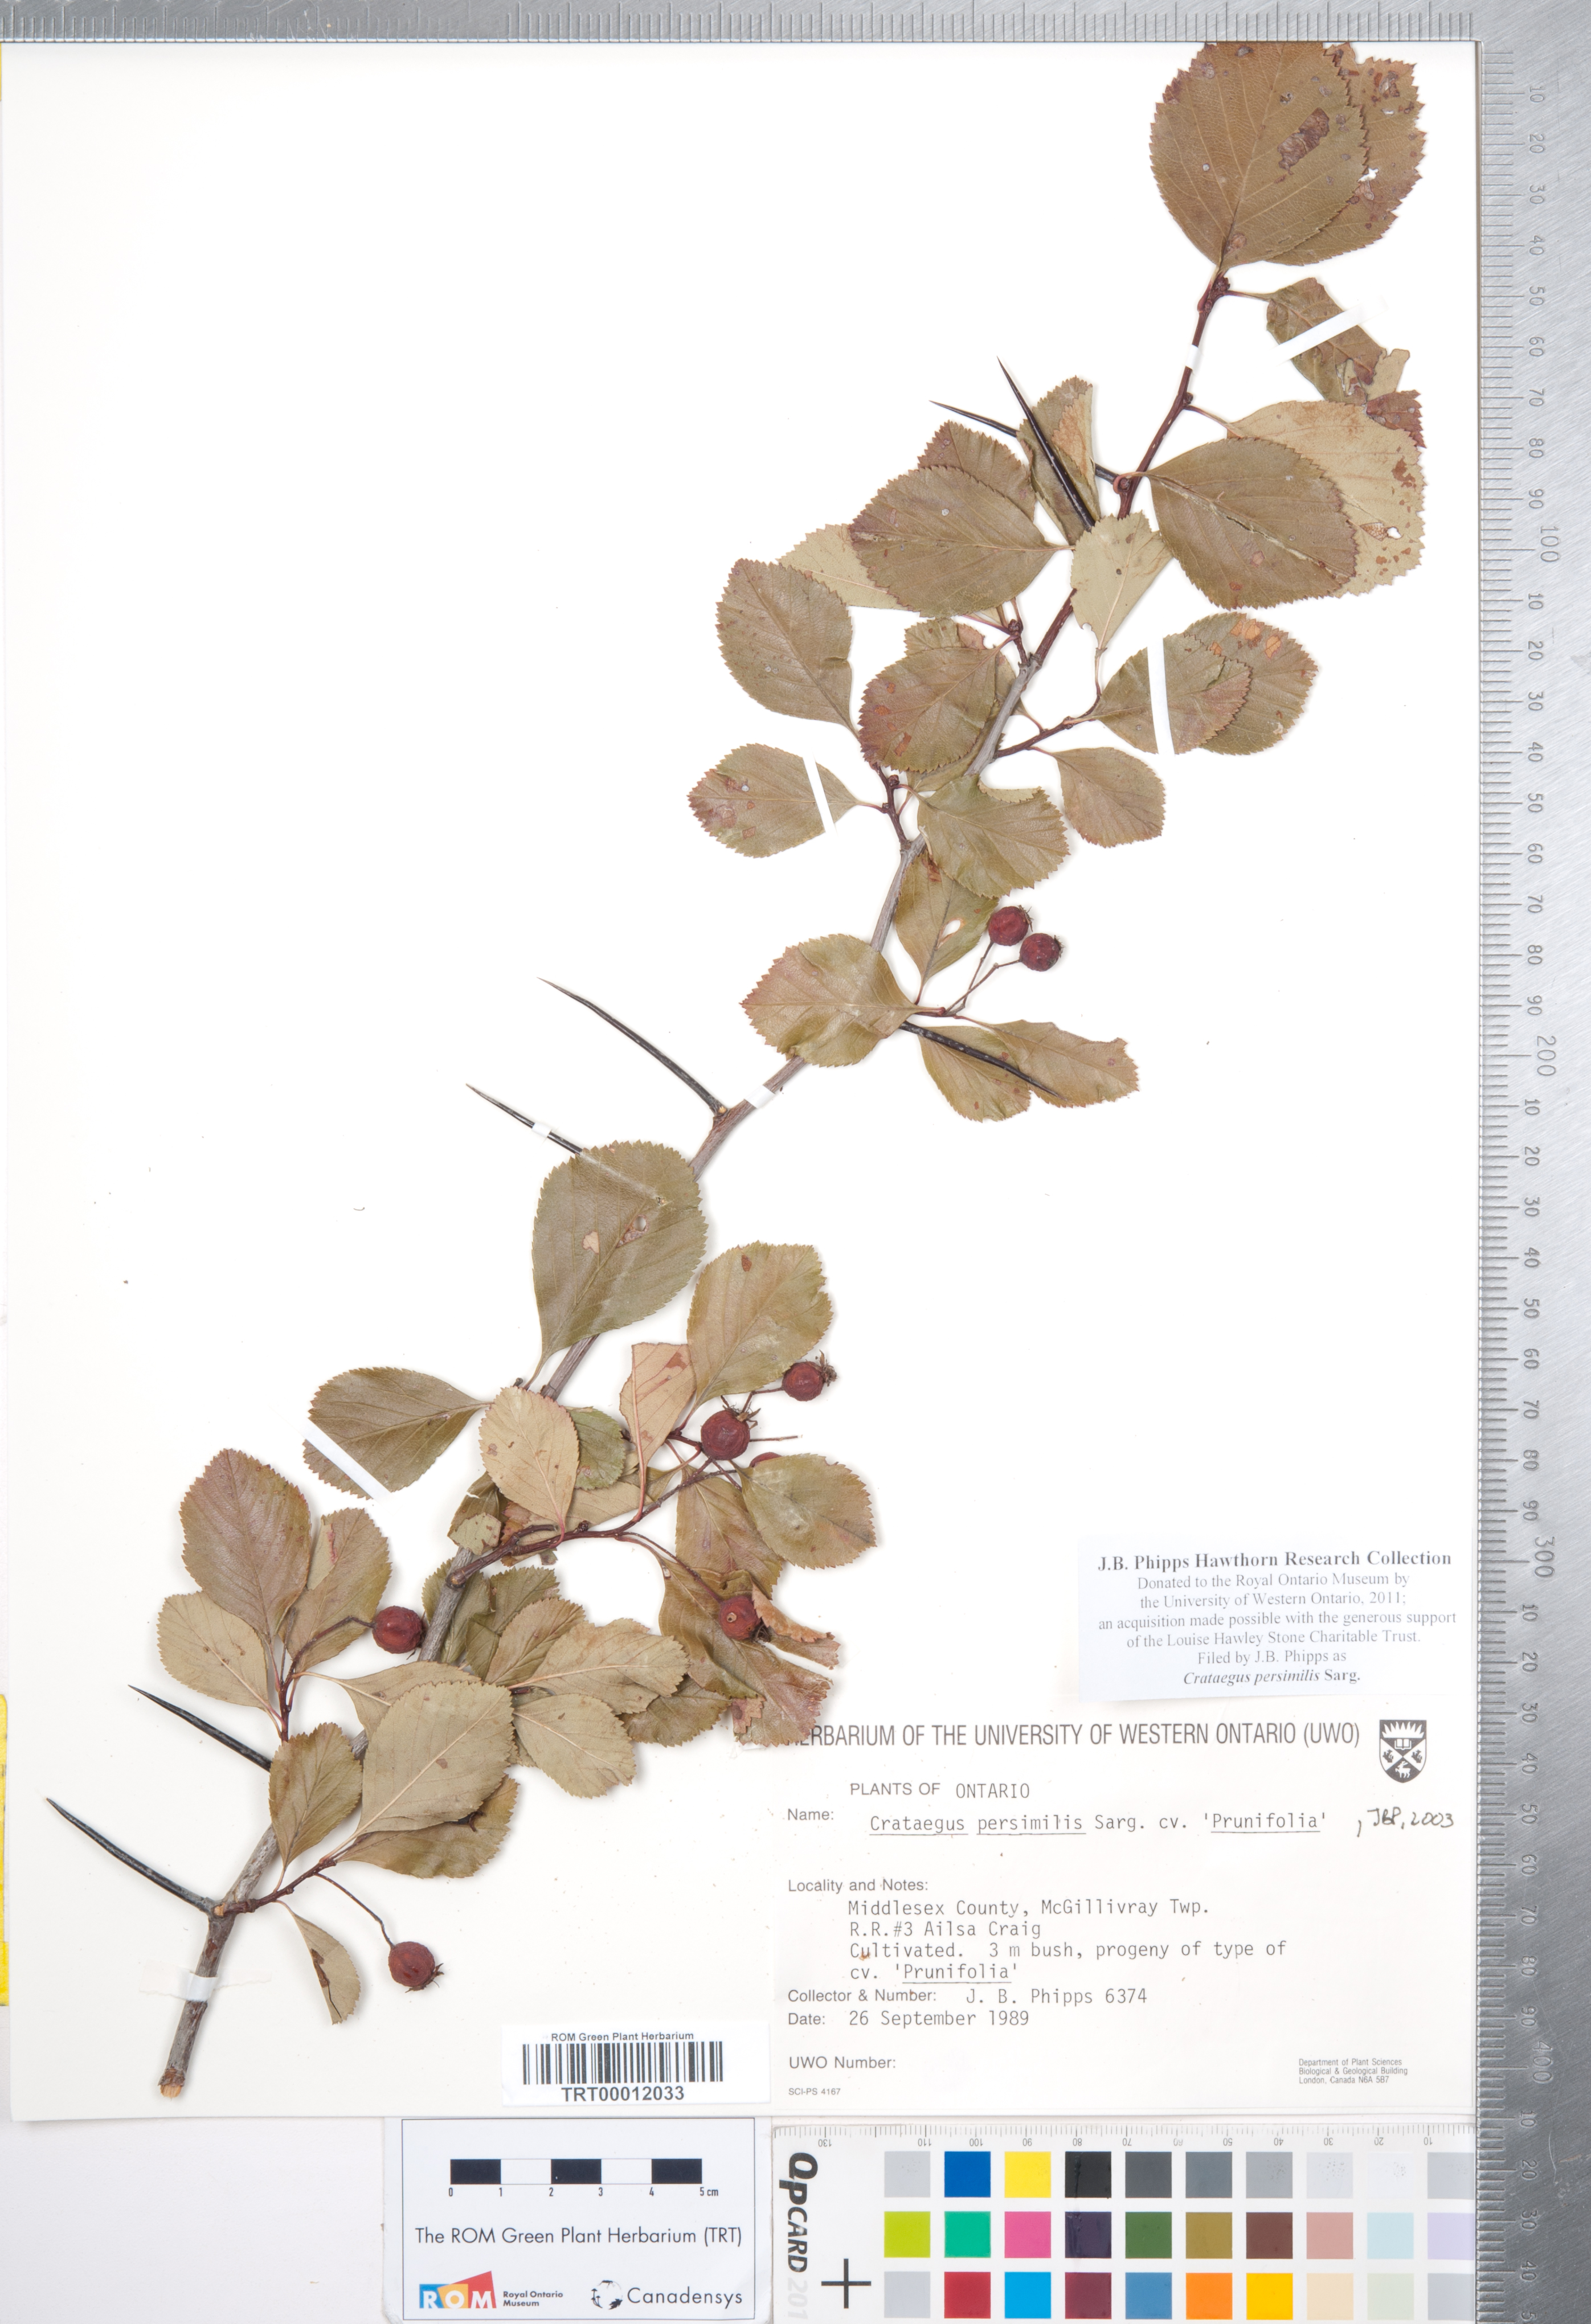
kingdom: Plantae
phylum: Tracheophyta
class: Magnoliopsida
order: Rosales
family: Rosaceae
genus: Crataegus
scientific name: Crataegus persimilis
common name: Broad-leaved cockspurthorn
